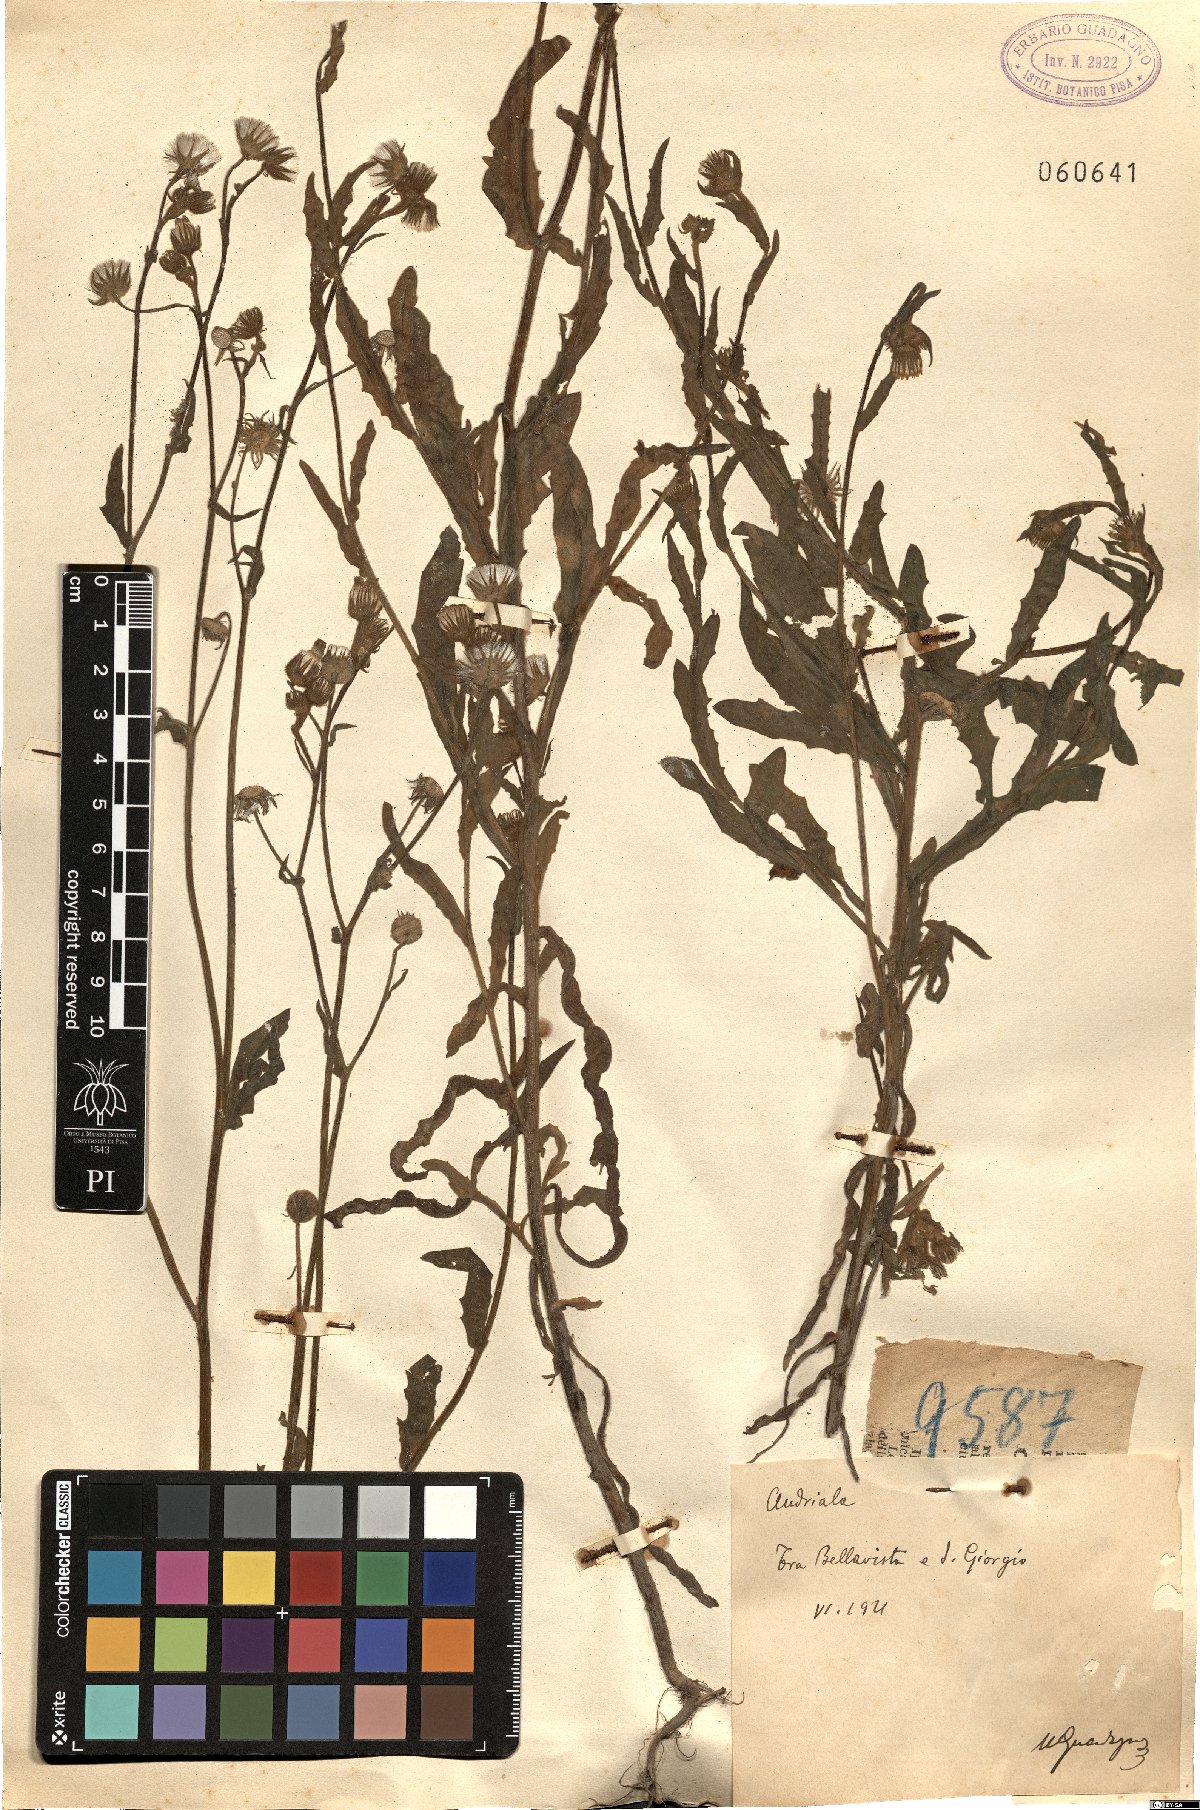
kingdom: Plantae
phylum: Tracheophyta
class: Magnoliopsida
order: Asterales
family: Asteraceae
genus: Andryala
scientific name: Andryala
